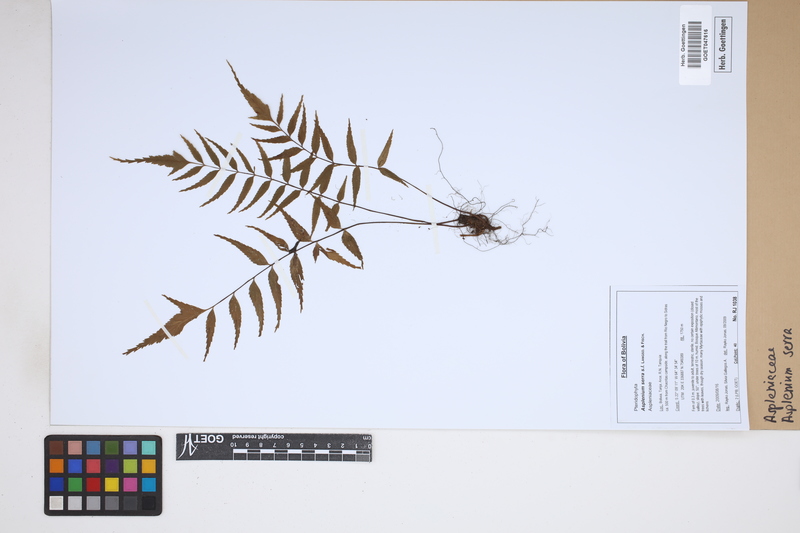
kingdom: Plantae
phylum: Tracheophyta
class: Polypodiopsida
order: Polypodiales
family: Aspleniaceae
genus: Asplenium
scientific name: Asplenium serra
